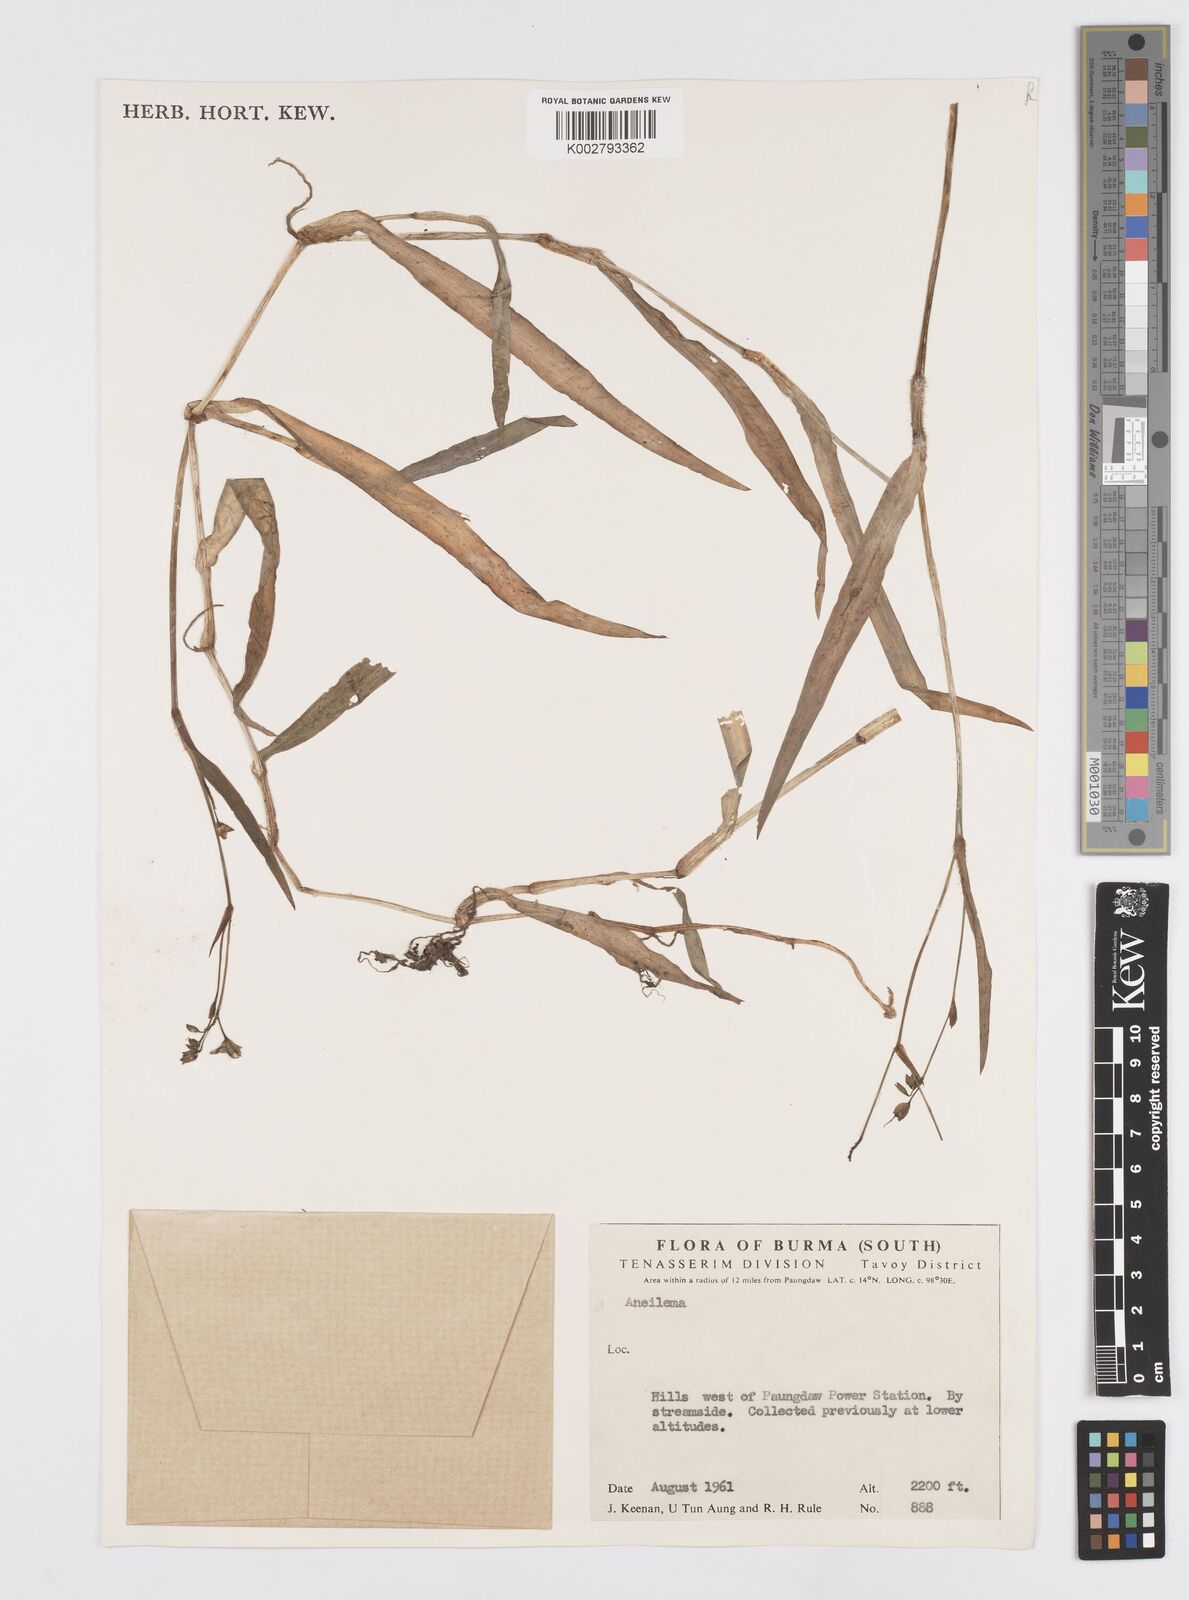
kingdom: Plantae
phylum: Tracheophyta
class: Liliopsida
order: Commelinales
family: Commelinaceae
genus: Murdannia
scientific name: Murdannia
